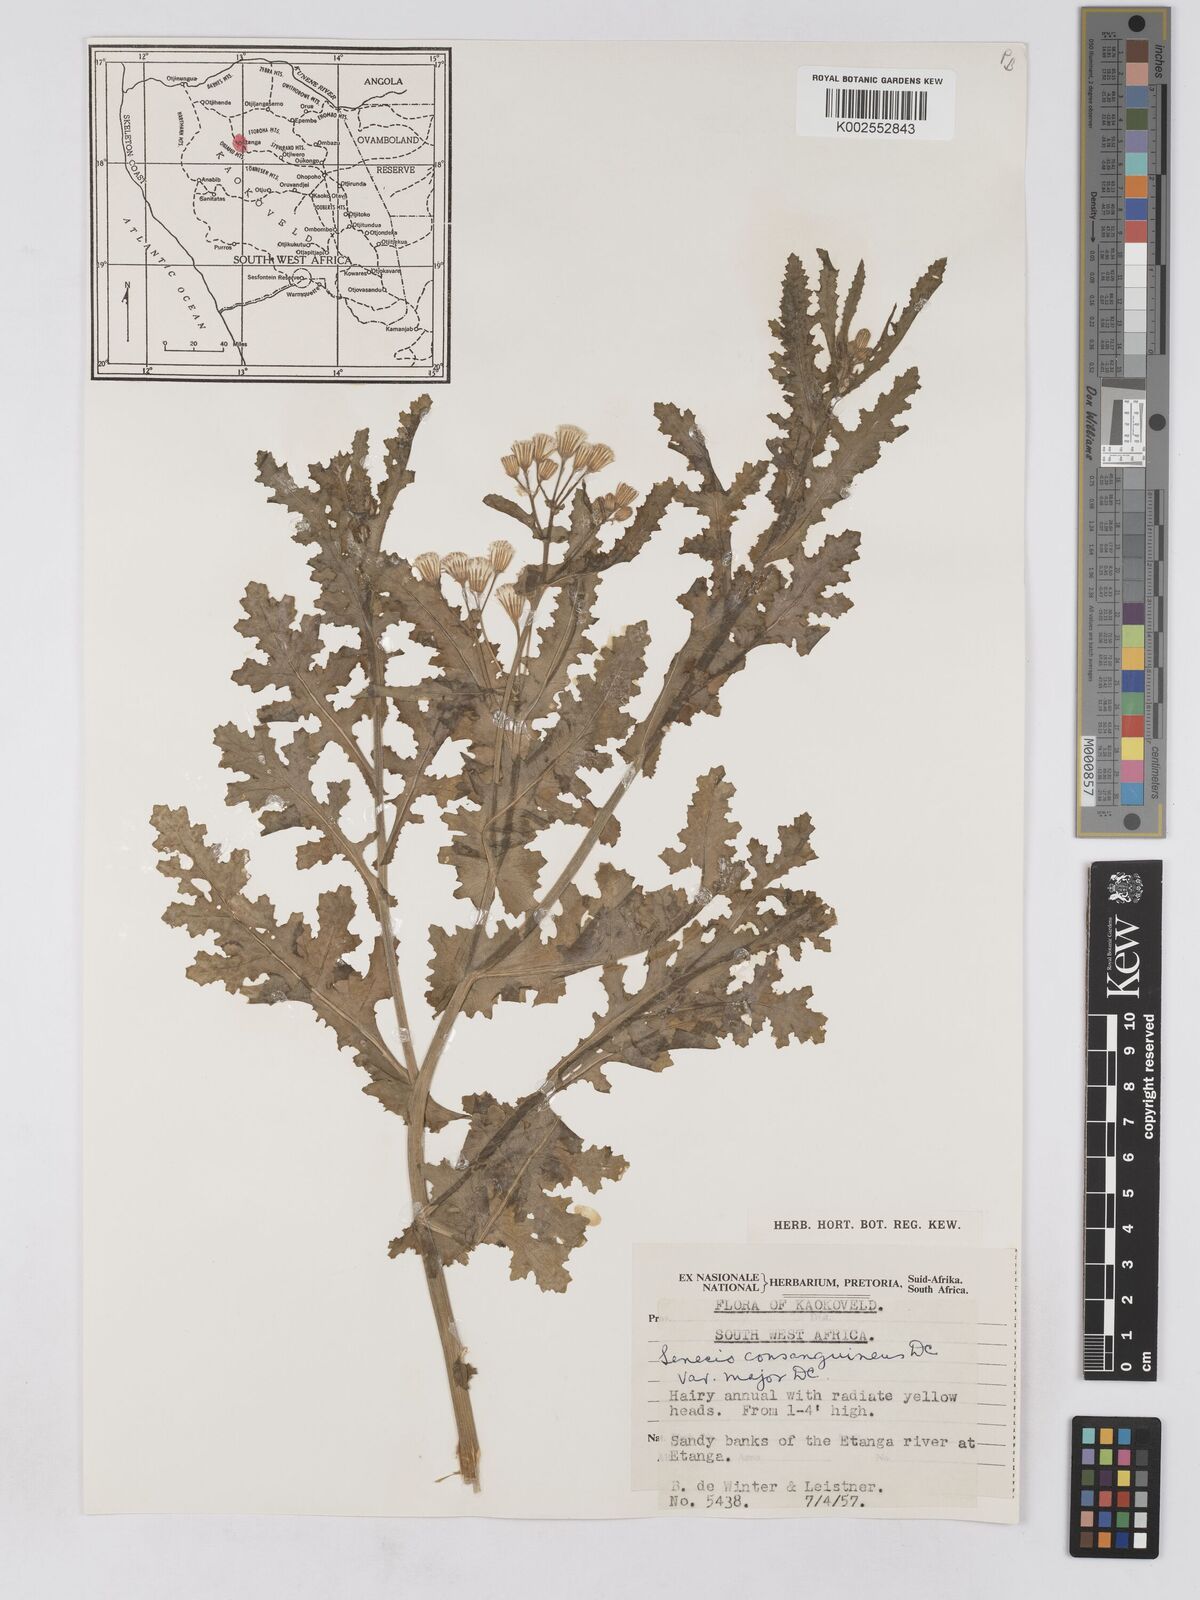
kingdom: Plantae
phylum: Tracheophyta
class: Magnoliopsida
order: Asterales
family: Asteraceae
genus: Senecio
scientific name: Senecio consanguineus
